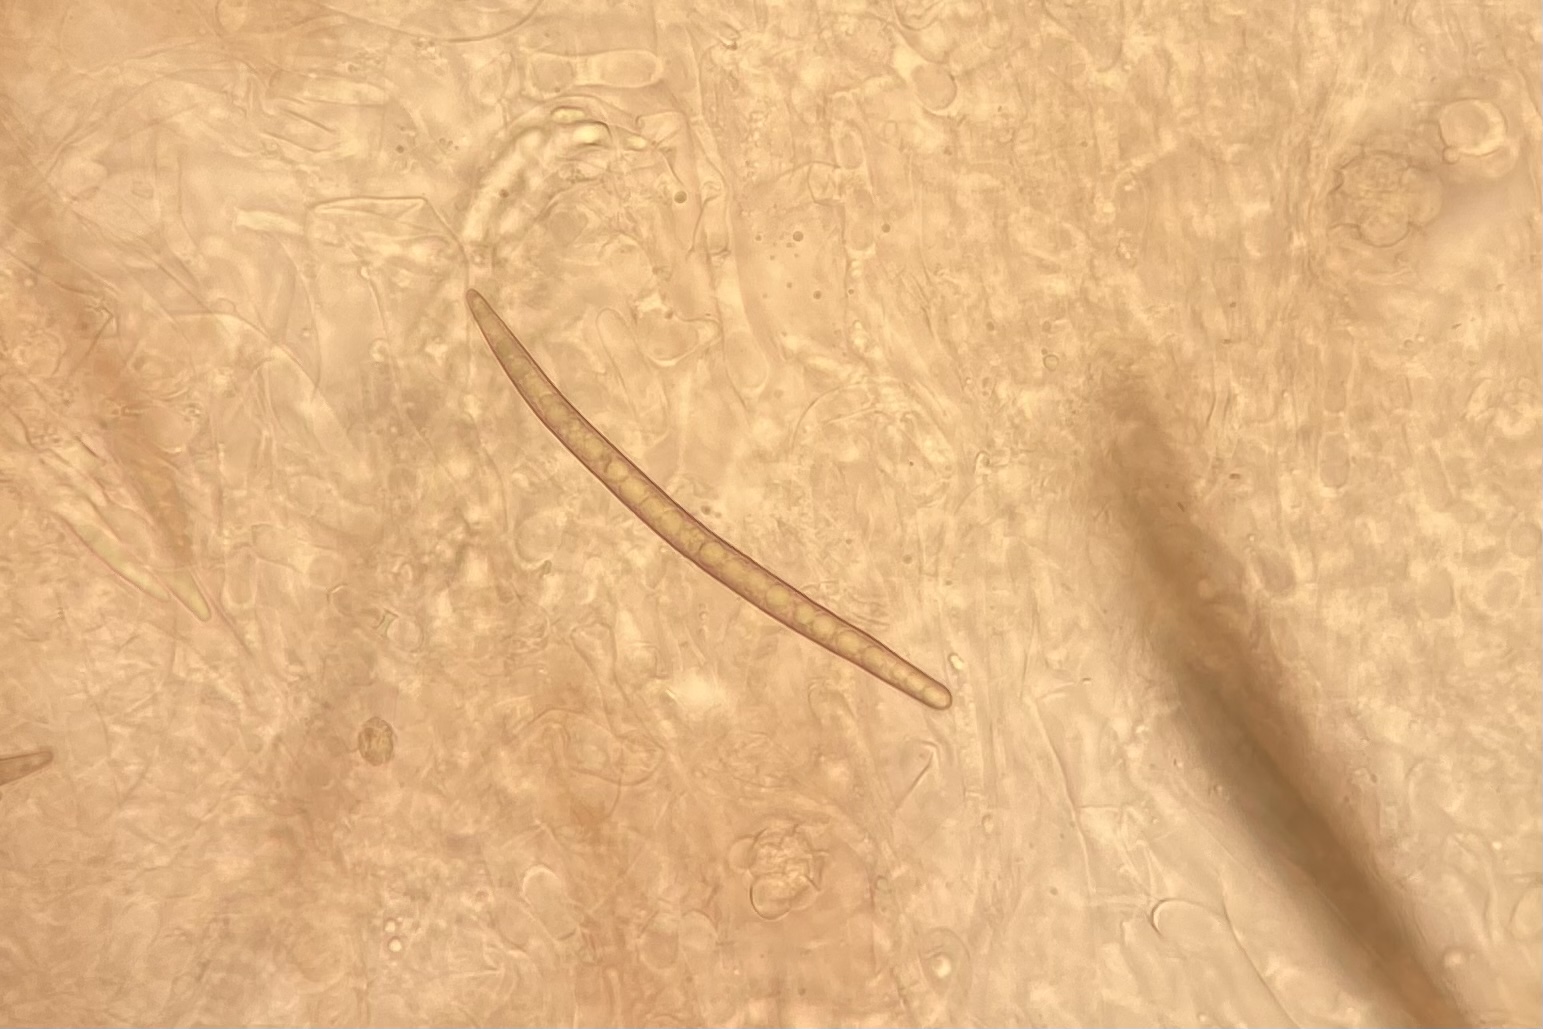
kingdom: Fungi
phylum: Ascomycota
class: Geoglossomycetes
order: Geoglossales
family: Geoglossaceae
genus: Geoglossum
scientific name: Geoglossum fallax
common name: småskællet jordtunge
